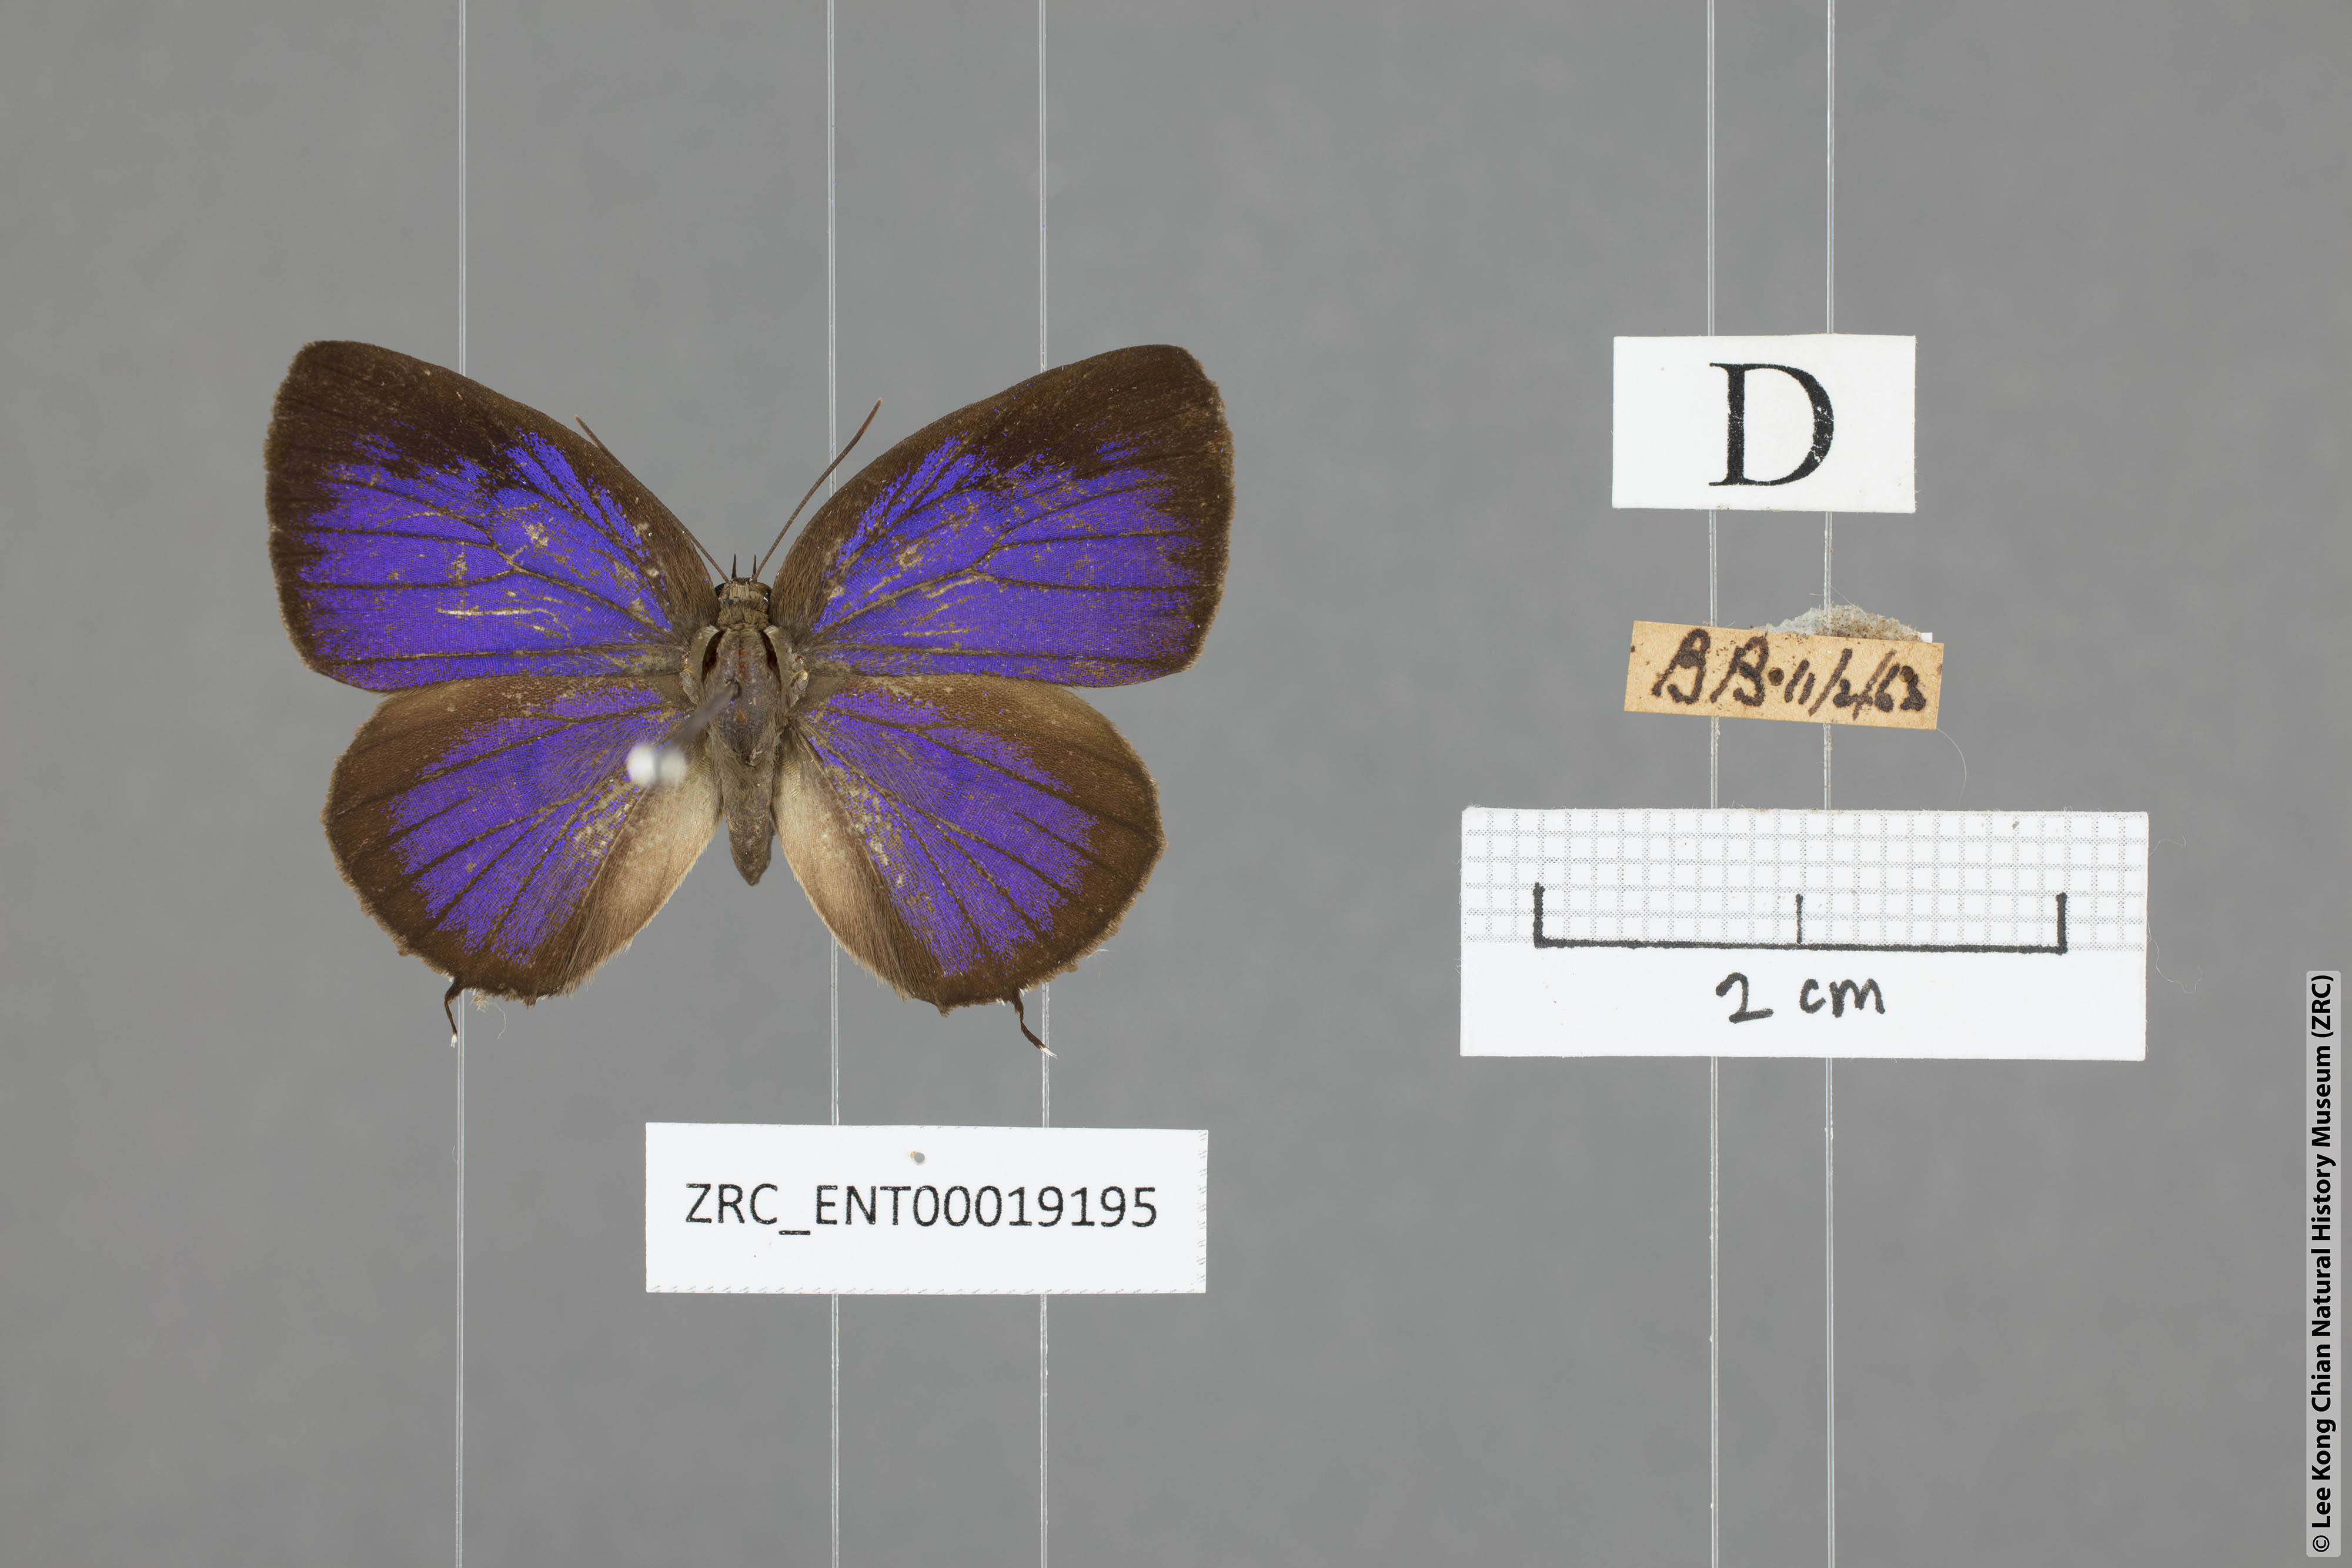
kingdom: Animalia
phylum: Arthropoda
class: Insecta
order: Lepidoptera
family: Lycaenidae
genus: Arhopala
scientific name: Arhopala aroa
